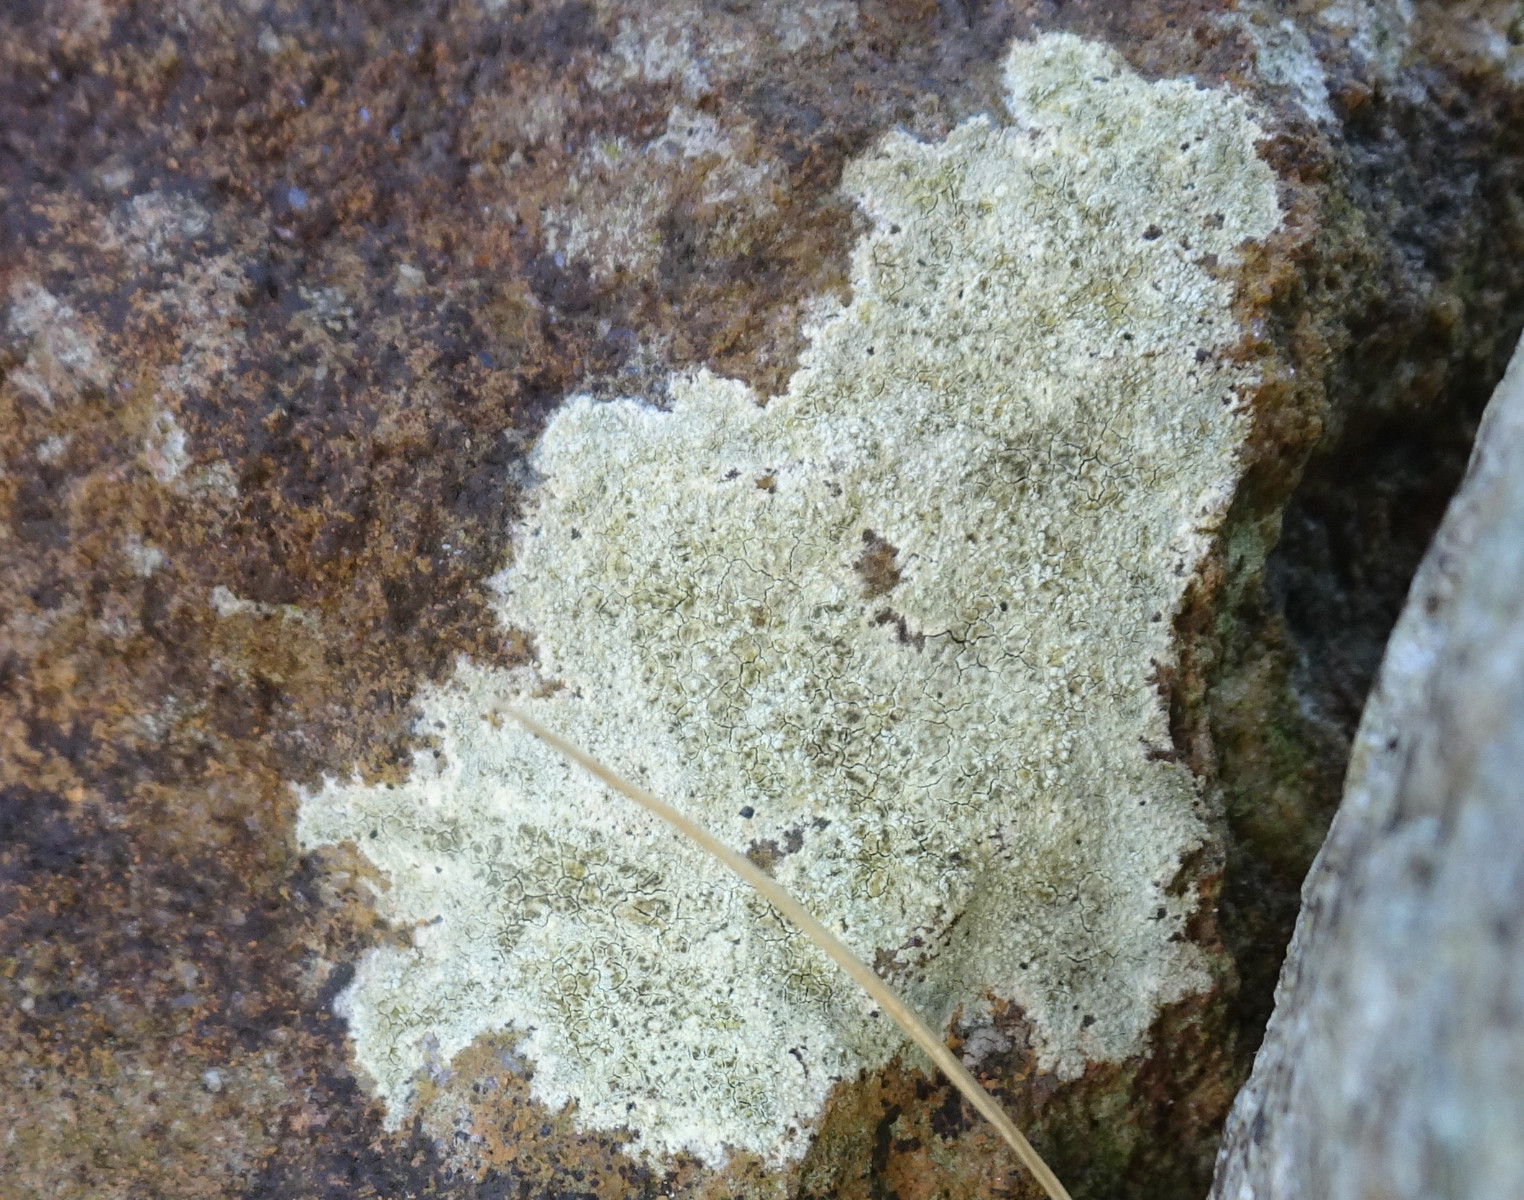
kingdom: Fungi
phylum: Ascomycota
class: Lecanoromycetes
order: Lecanorales
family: Lecanoraceae
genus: Glaucomaria
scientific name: Glaucomaria sulphurea
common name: svovlgul kantskivelav
